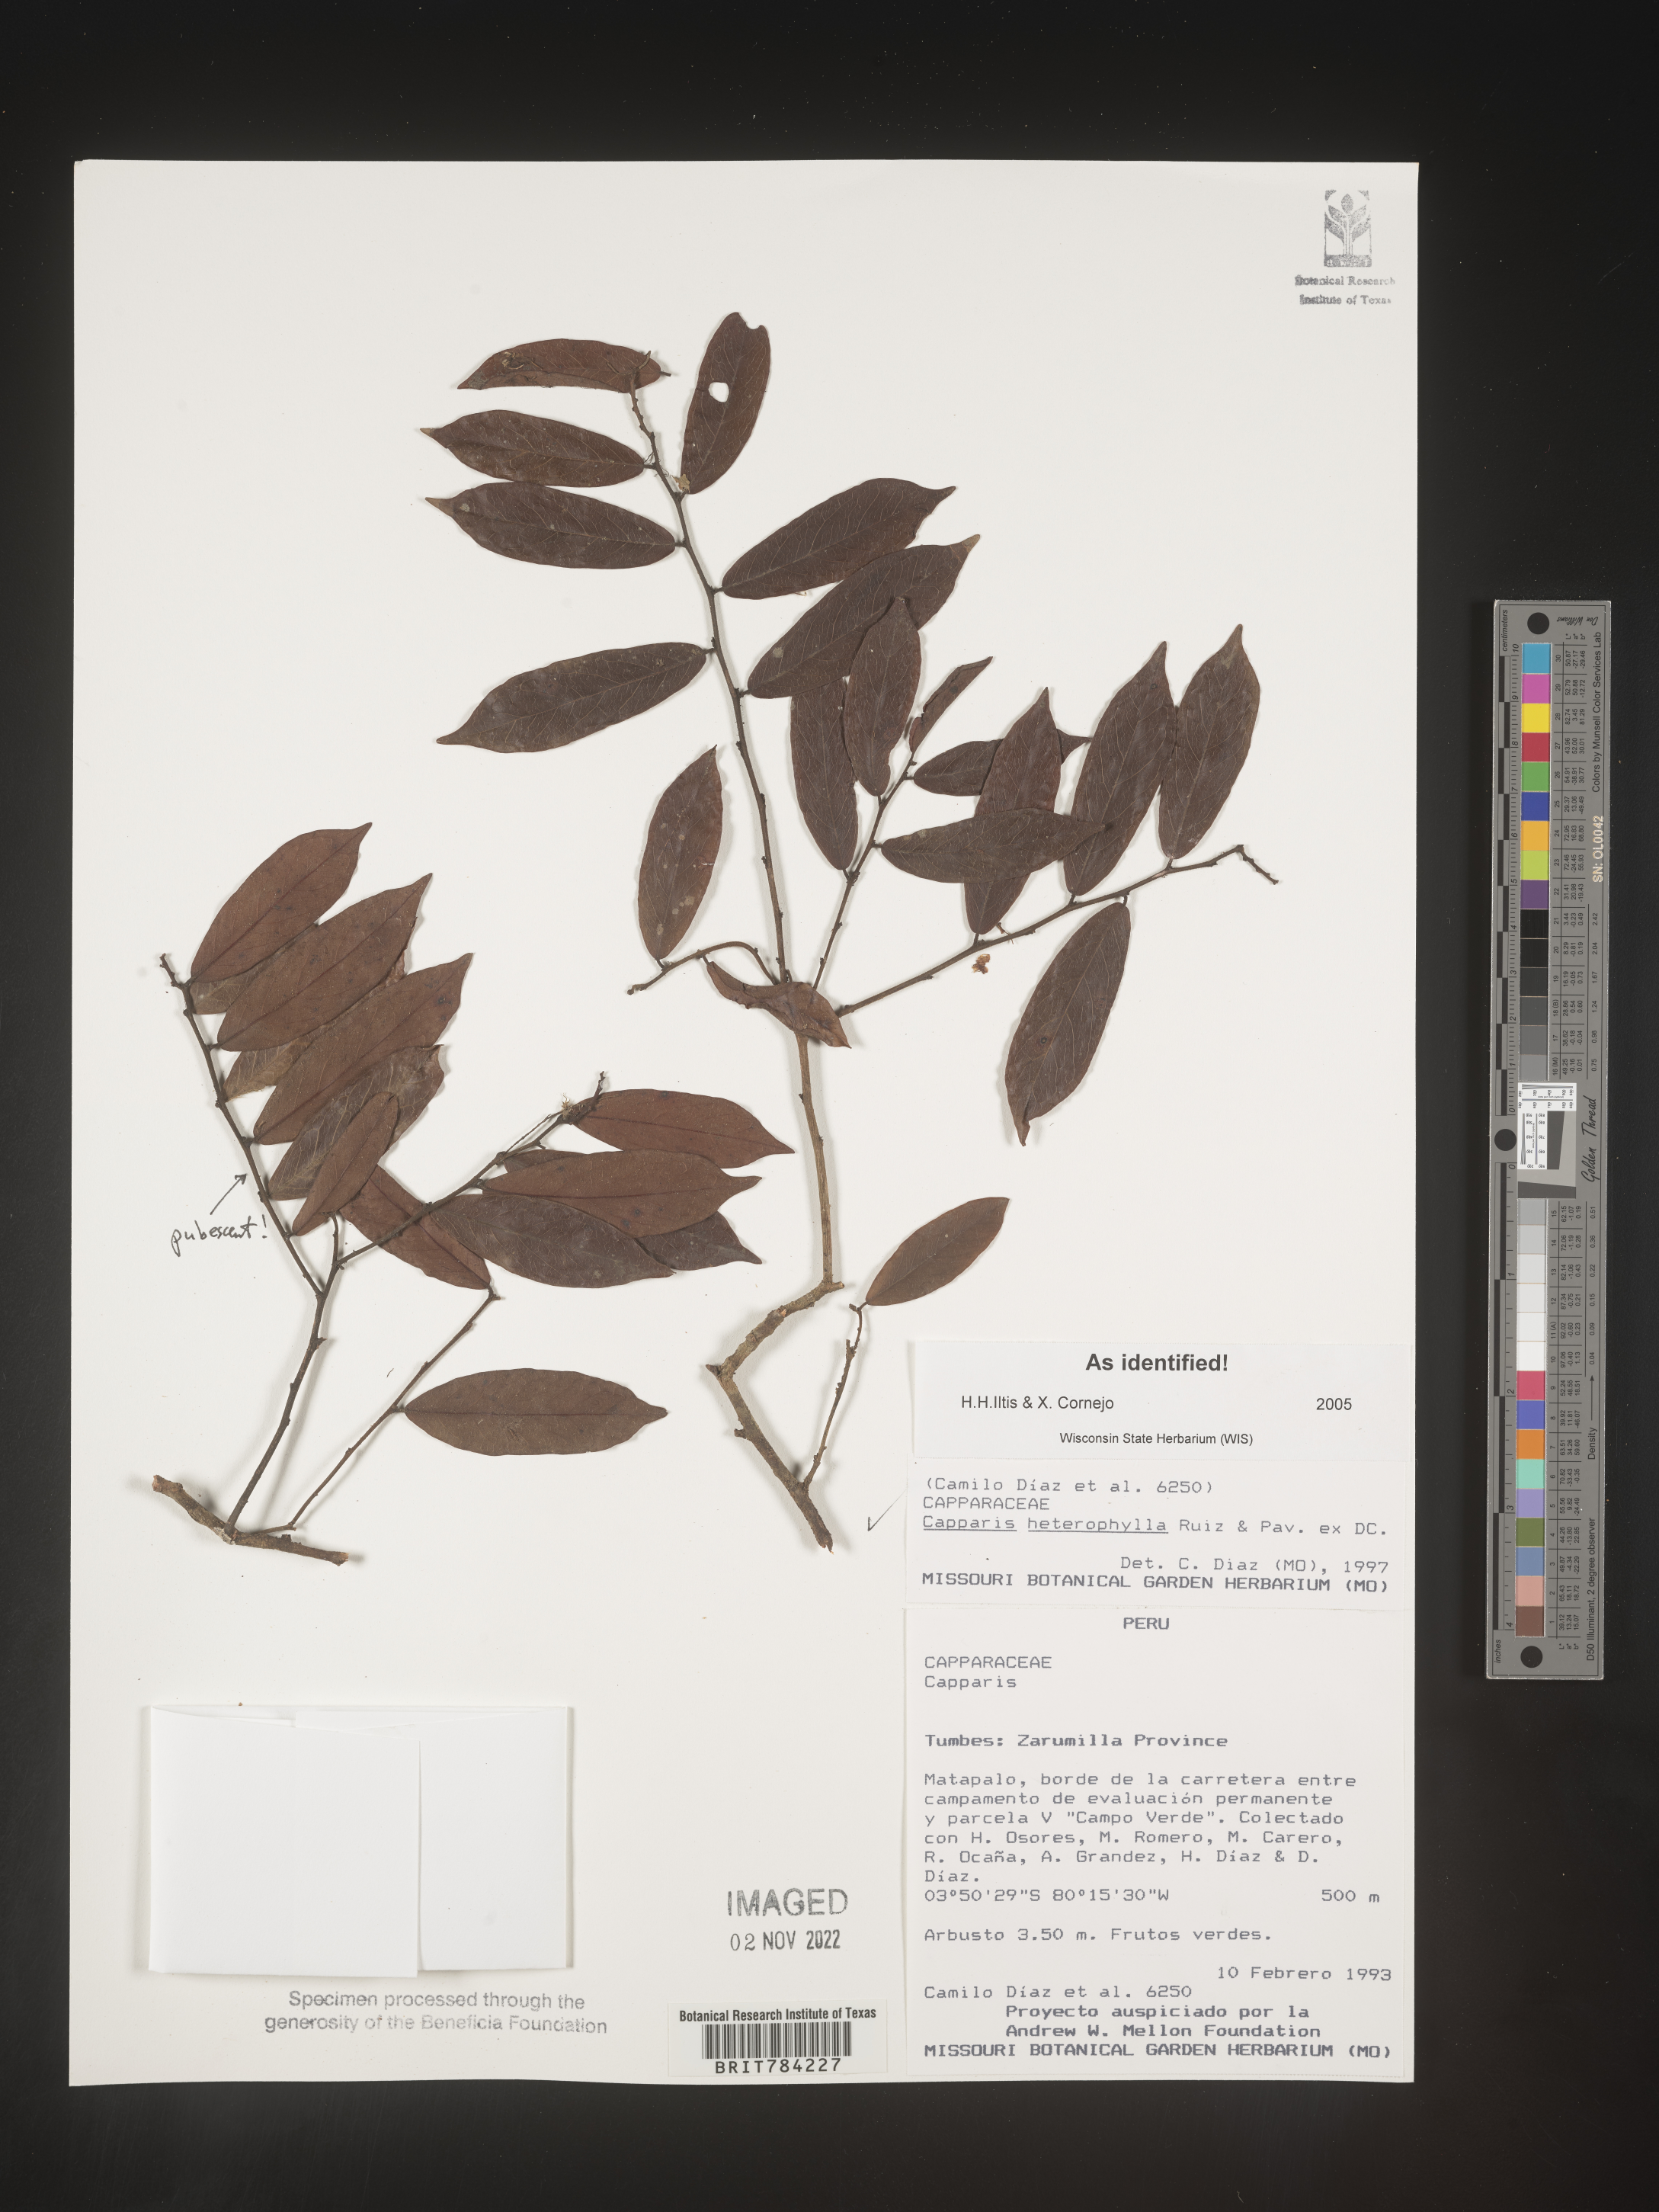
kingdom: Plantae
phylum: Tracheophyta
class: Magnoliopsida
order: Brassicales
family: Capparaceae
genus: Capparis
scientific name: Capparis
